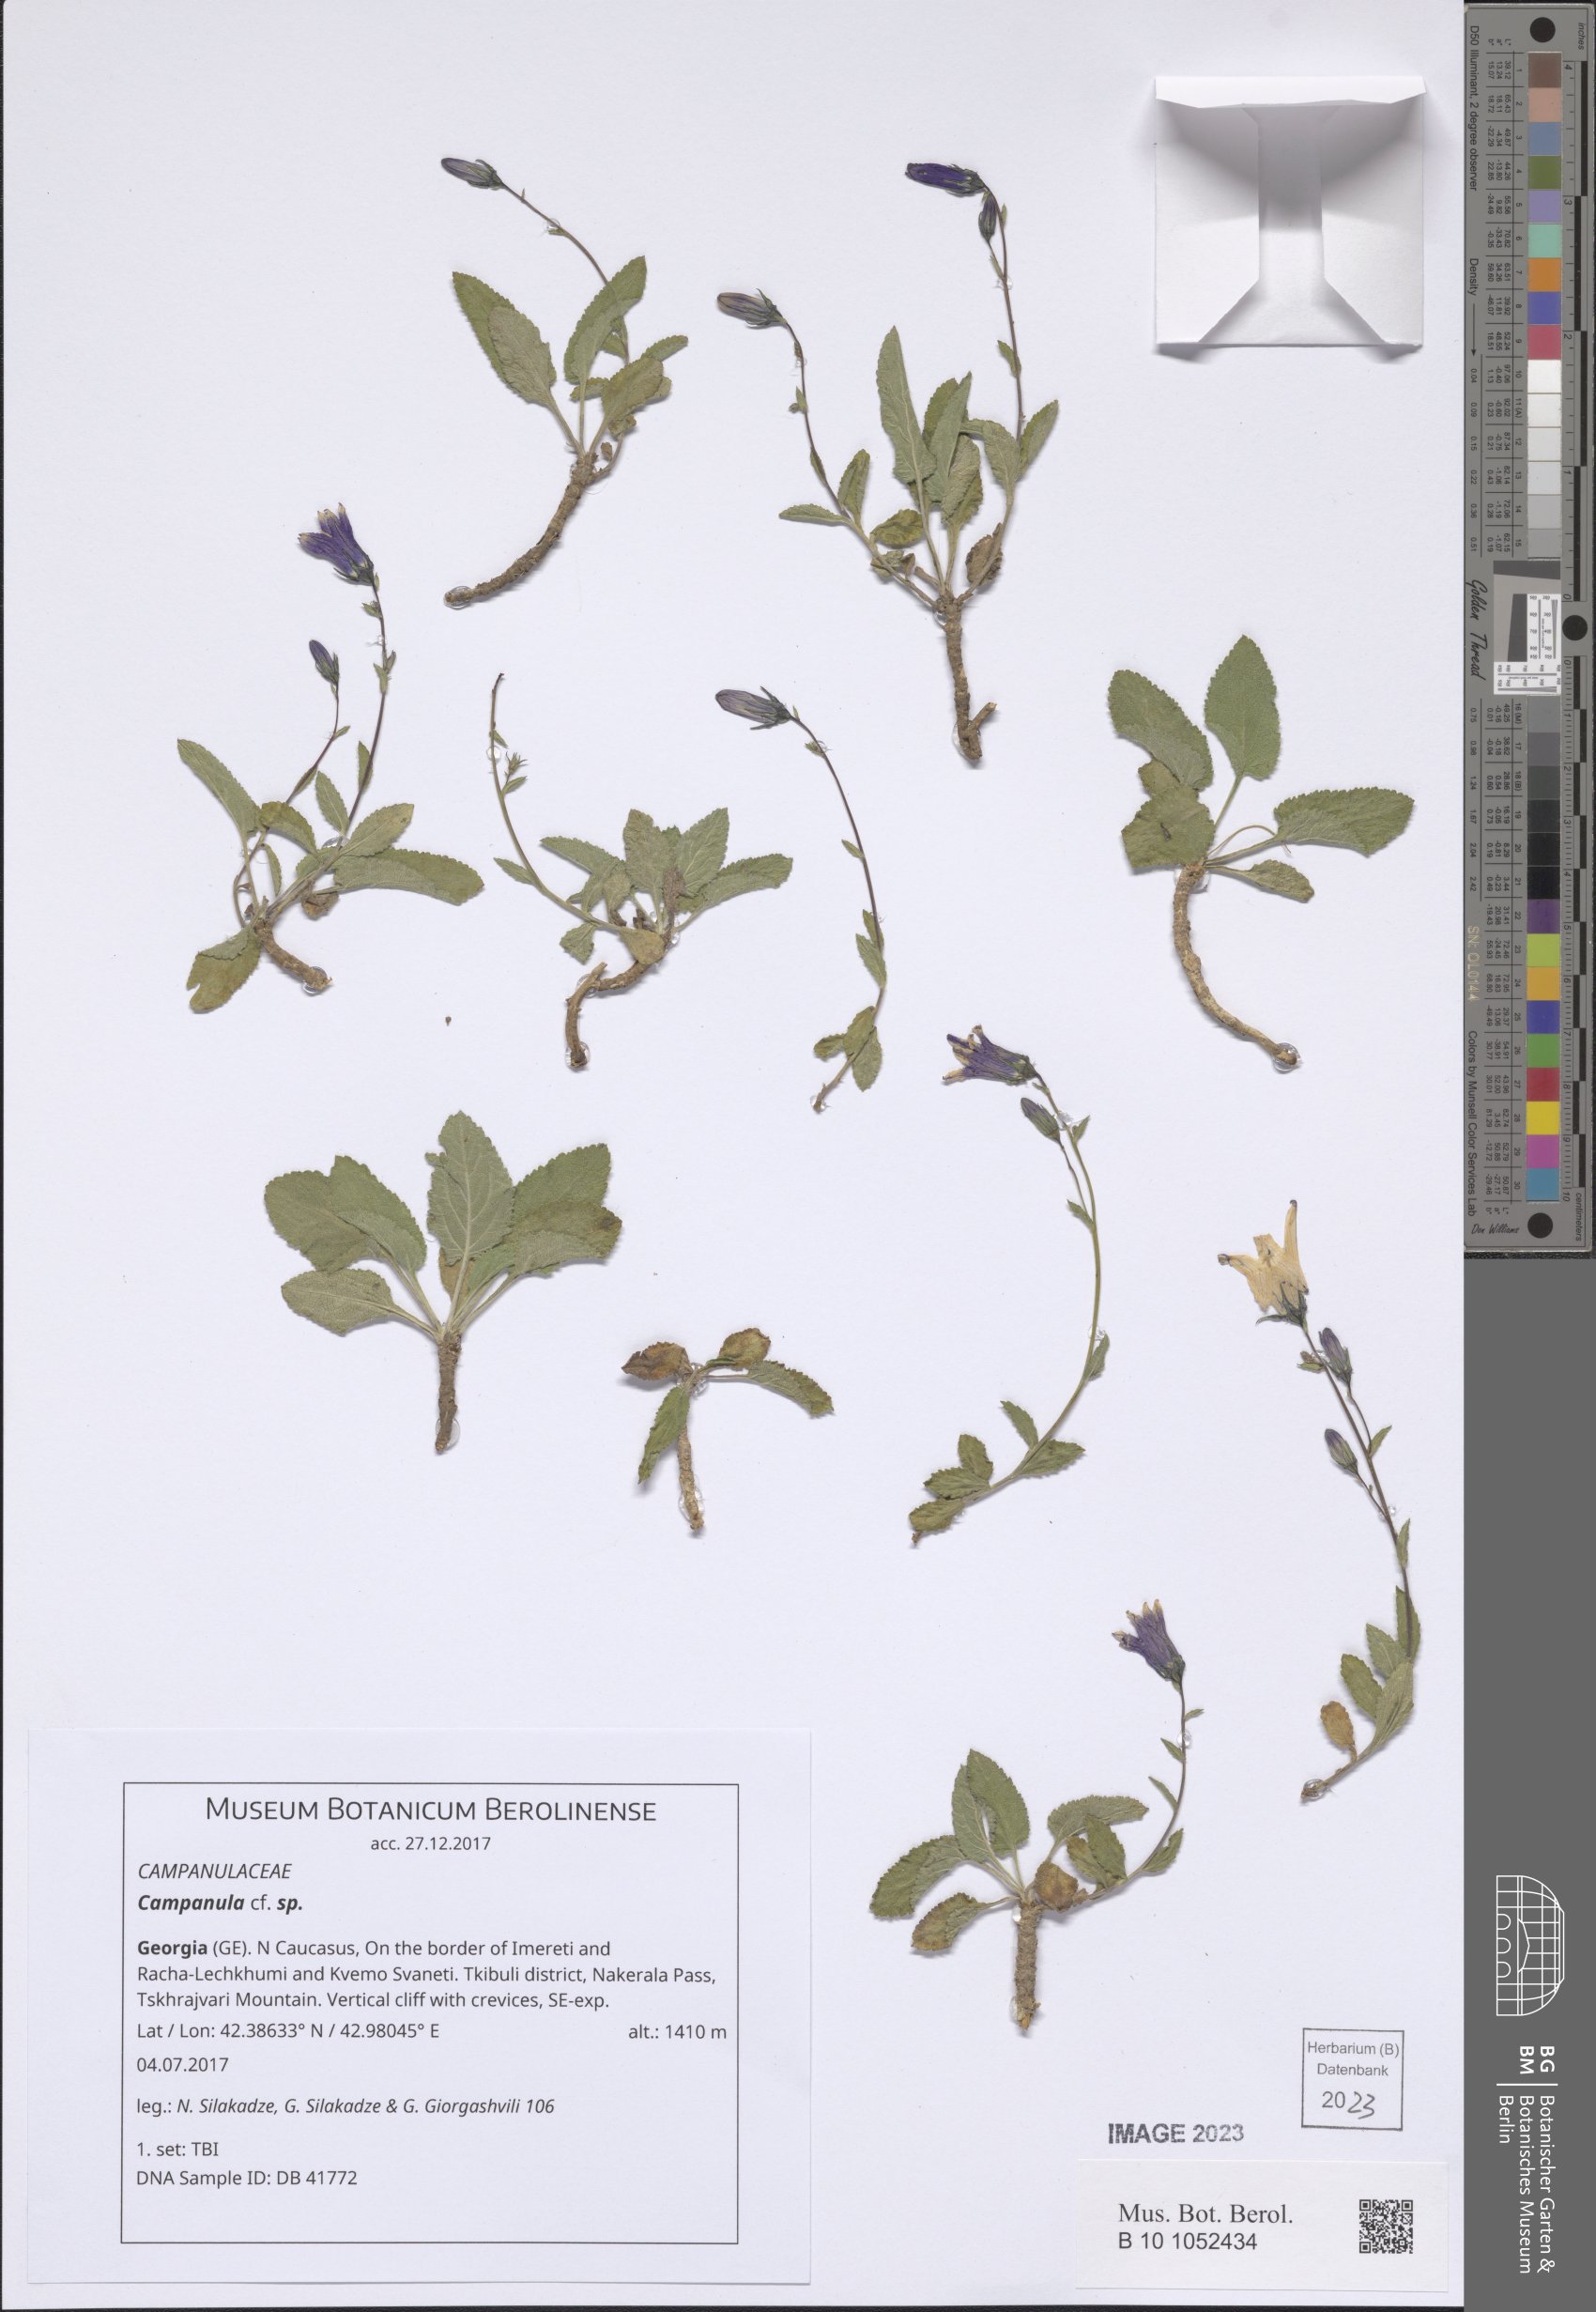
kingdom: Plantae
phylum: Tracheophyta
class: Magnoliopsida
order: Asterales
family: Campanulaceae
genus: Campanula
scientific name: Campanula
